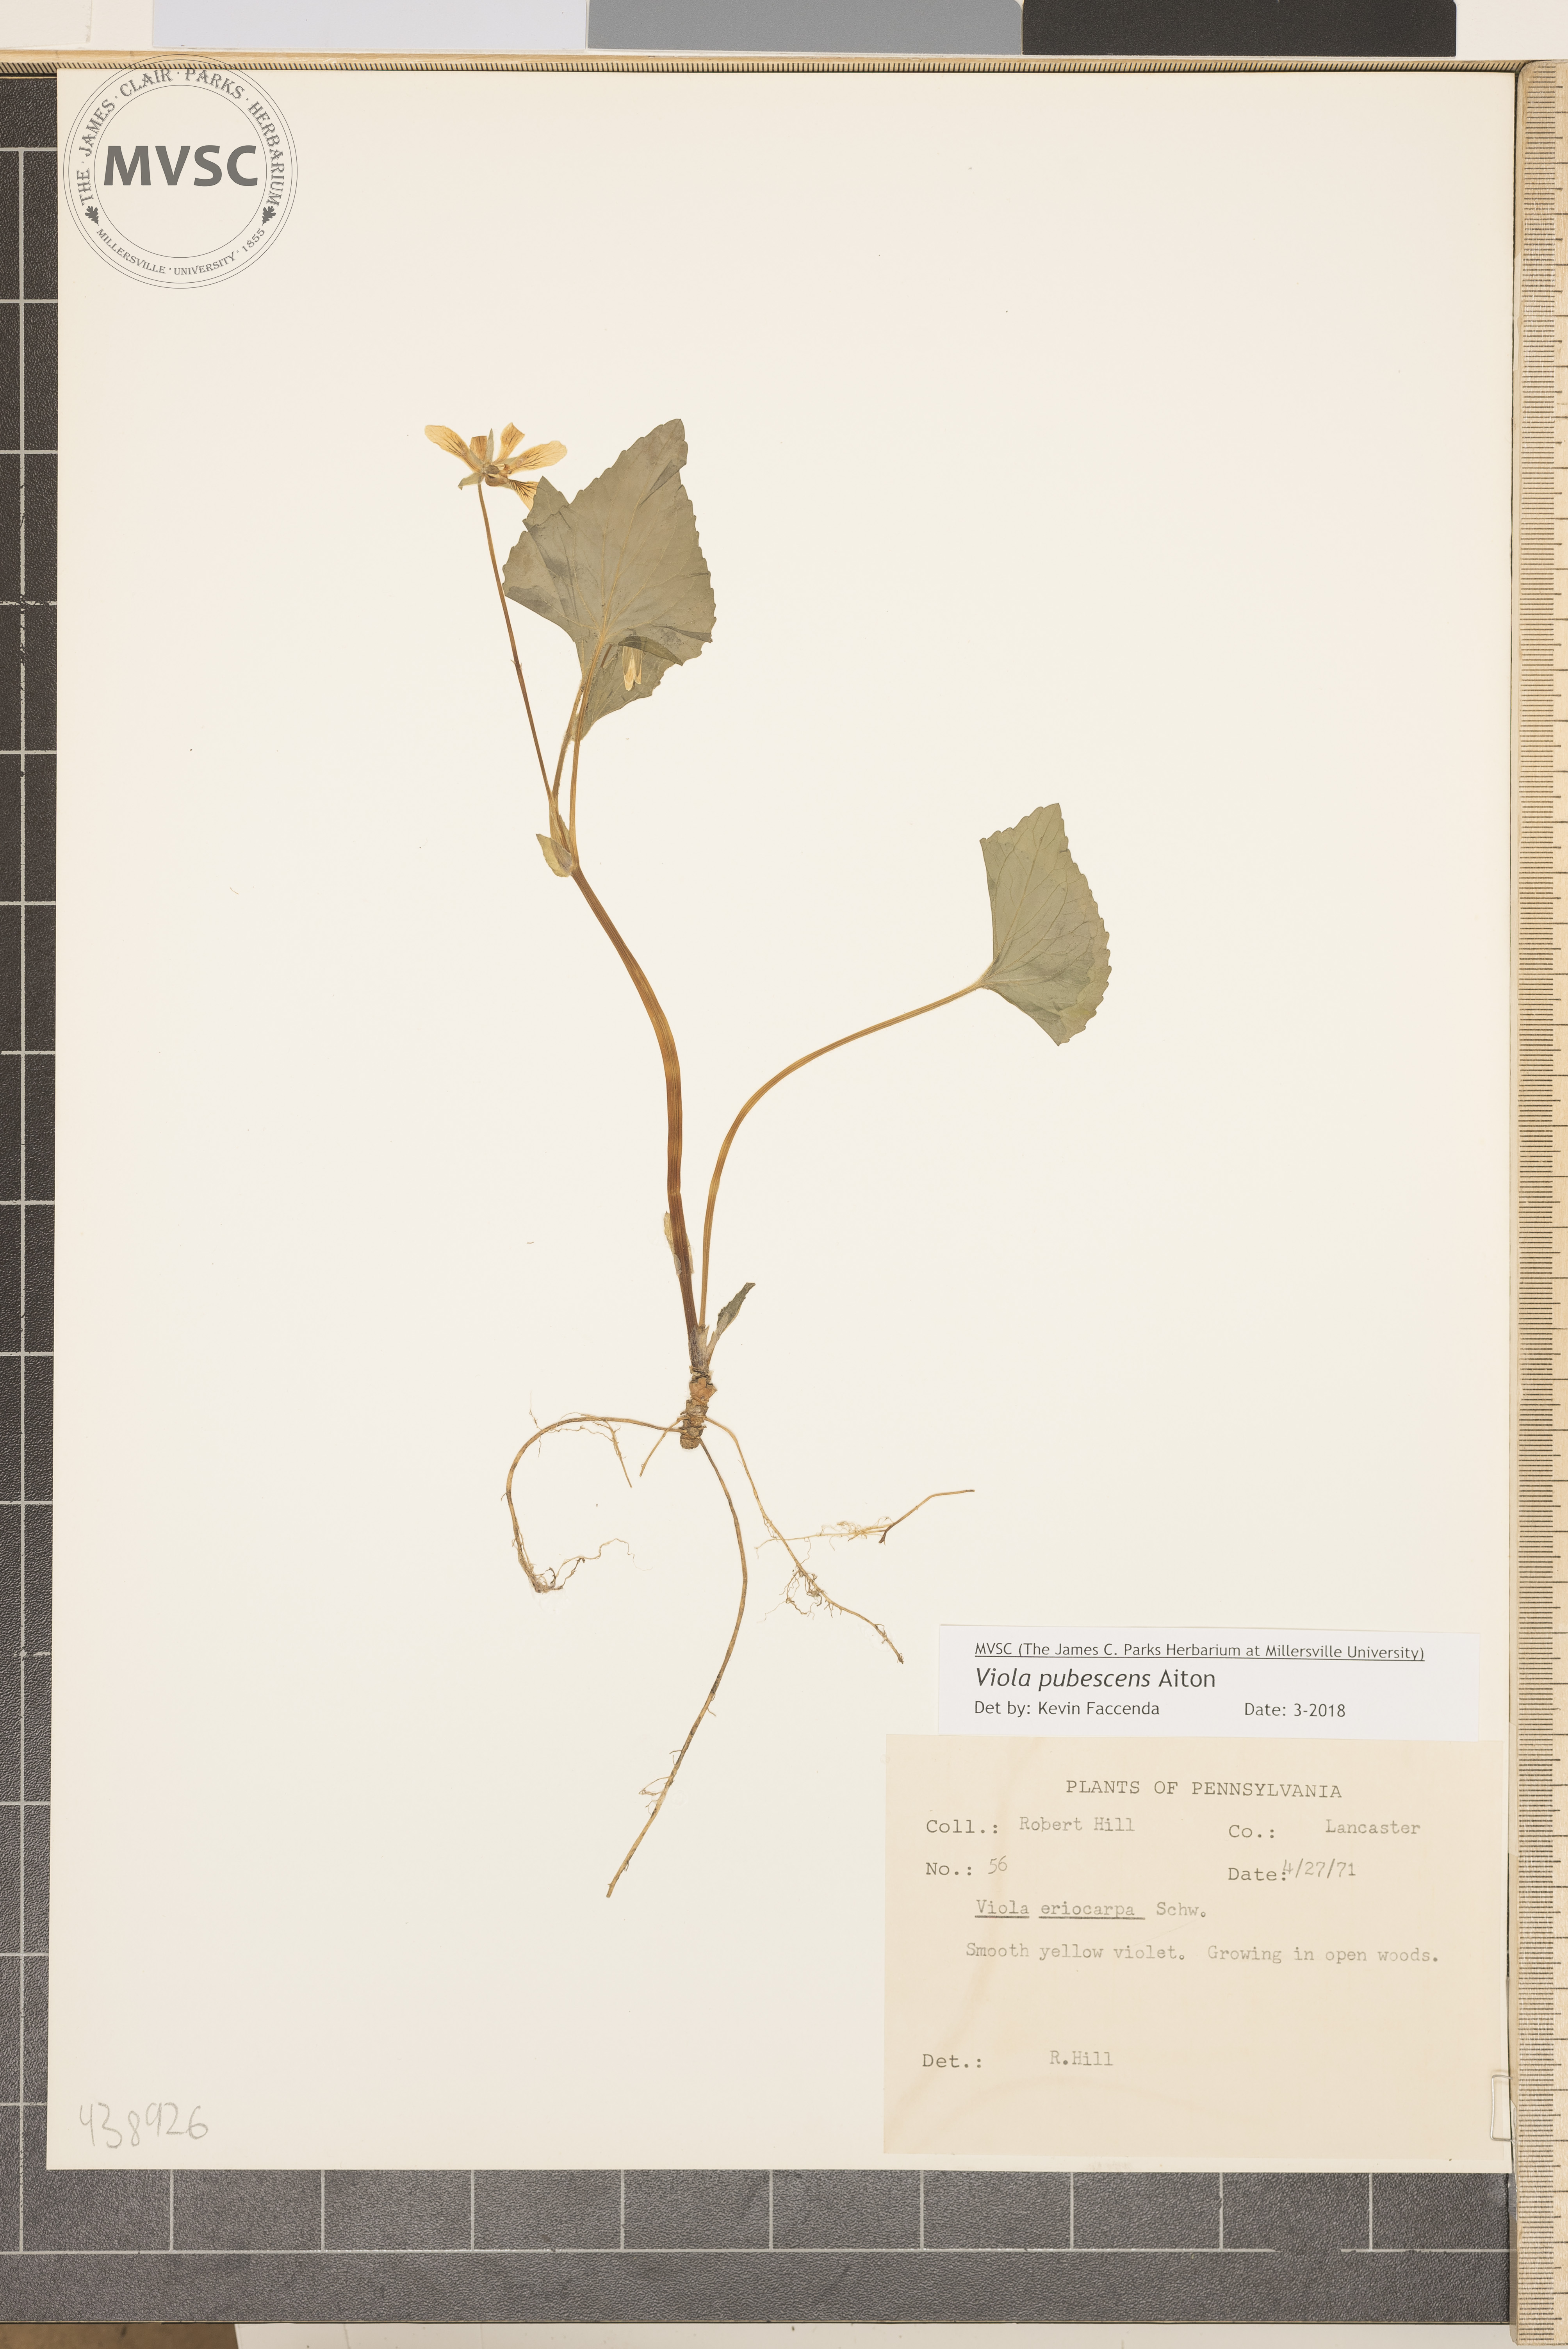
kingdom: Plantae
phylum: Tracheophyta
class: Magnoliopsida
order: Malpighiales
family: Violaceae
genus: Viola
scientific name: Viola pubescens
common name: Smooth yellow violet
